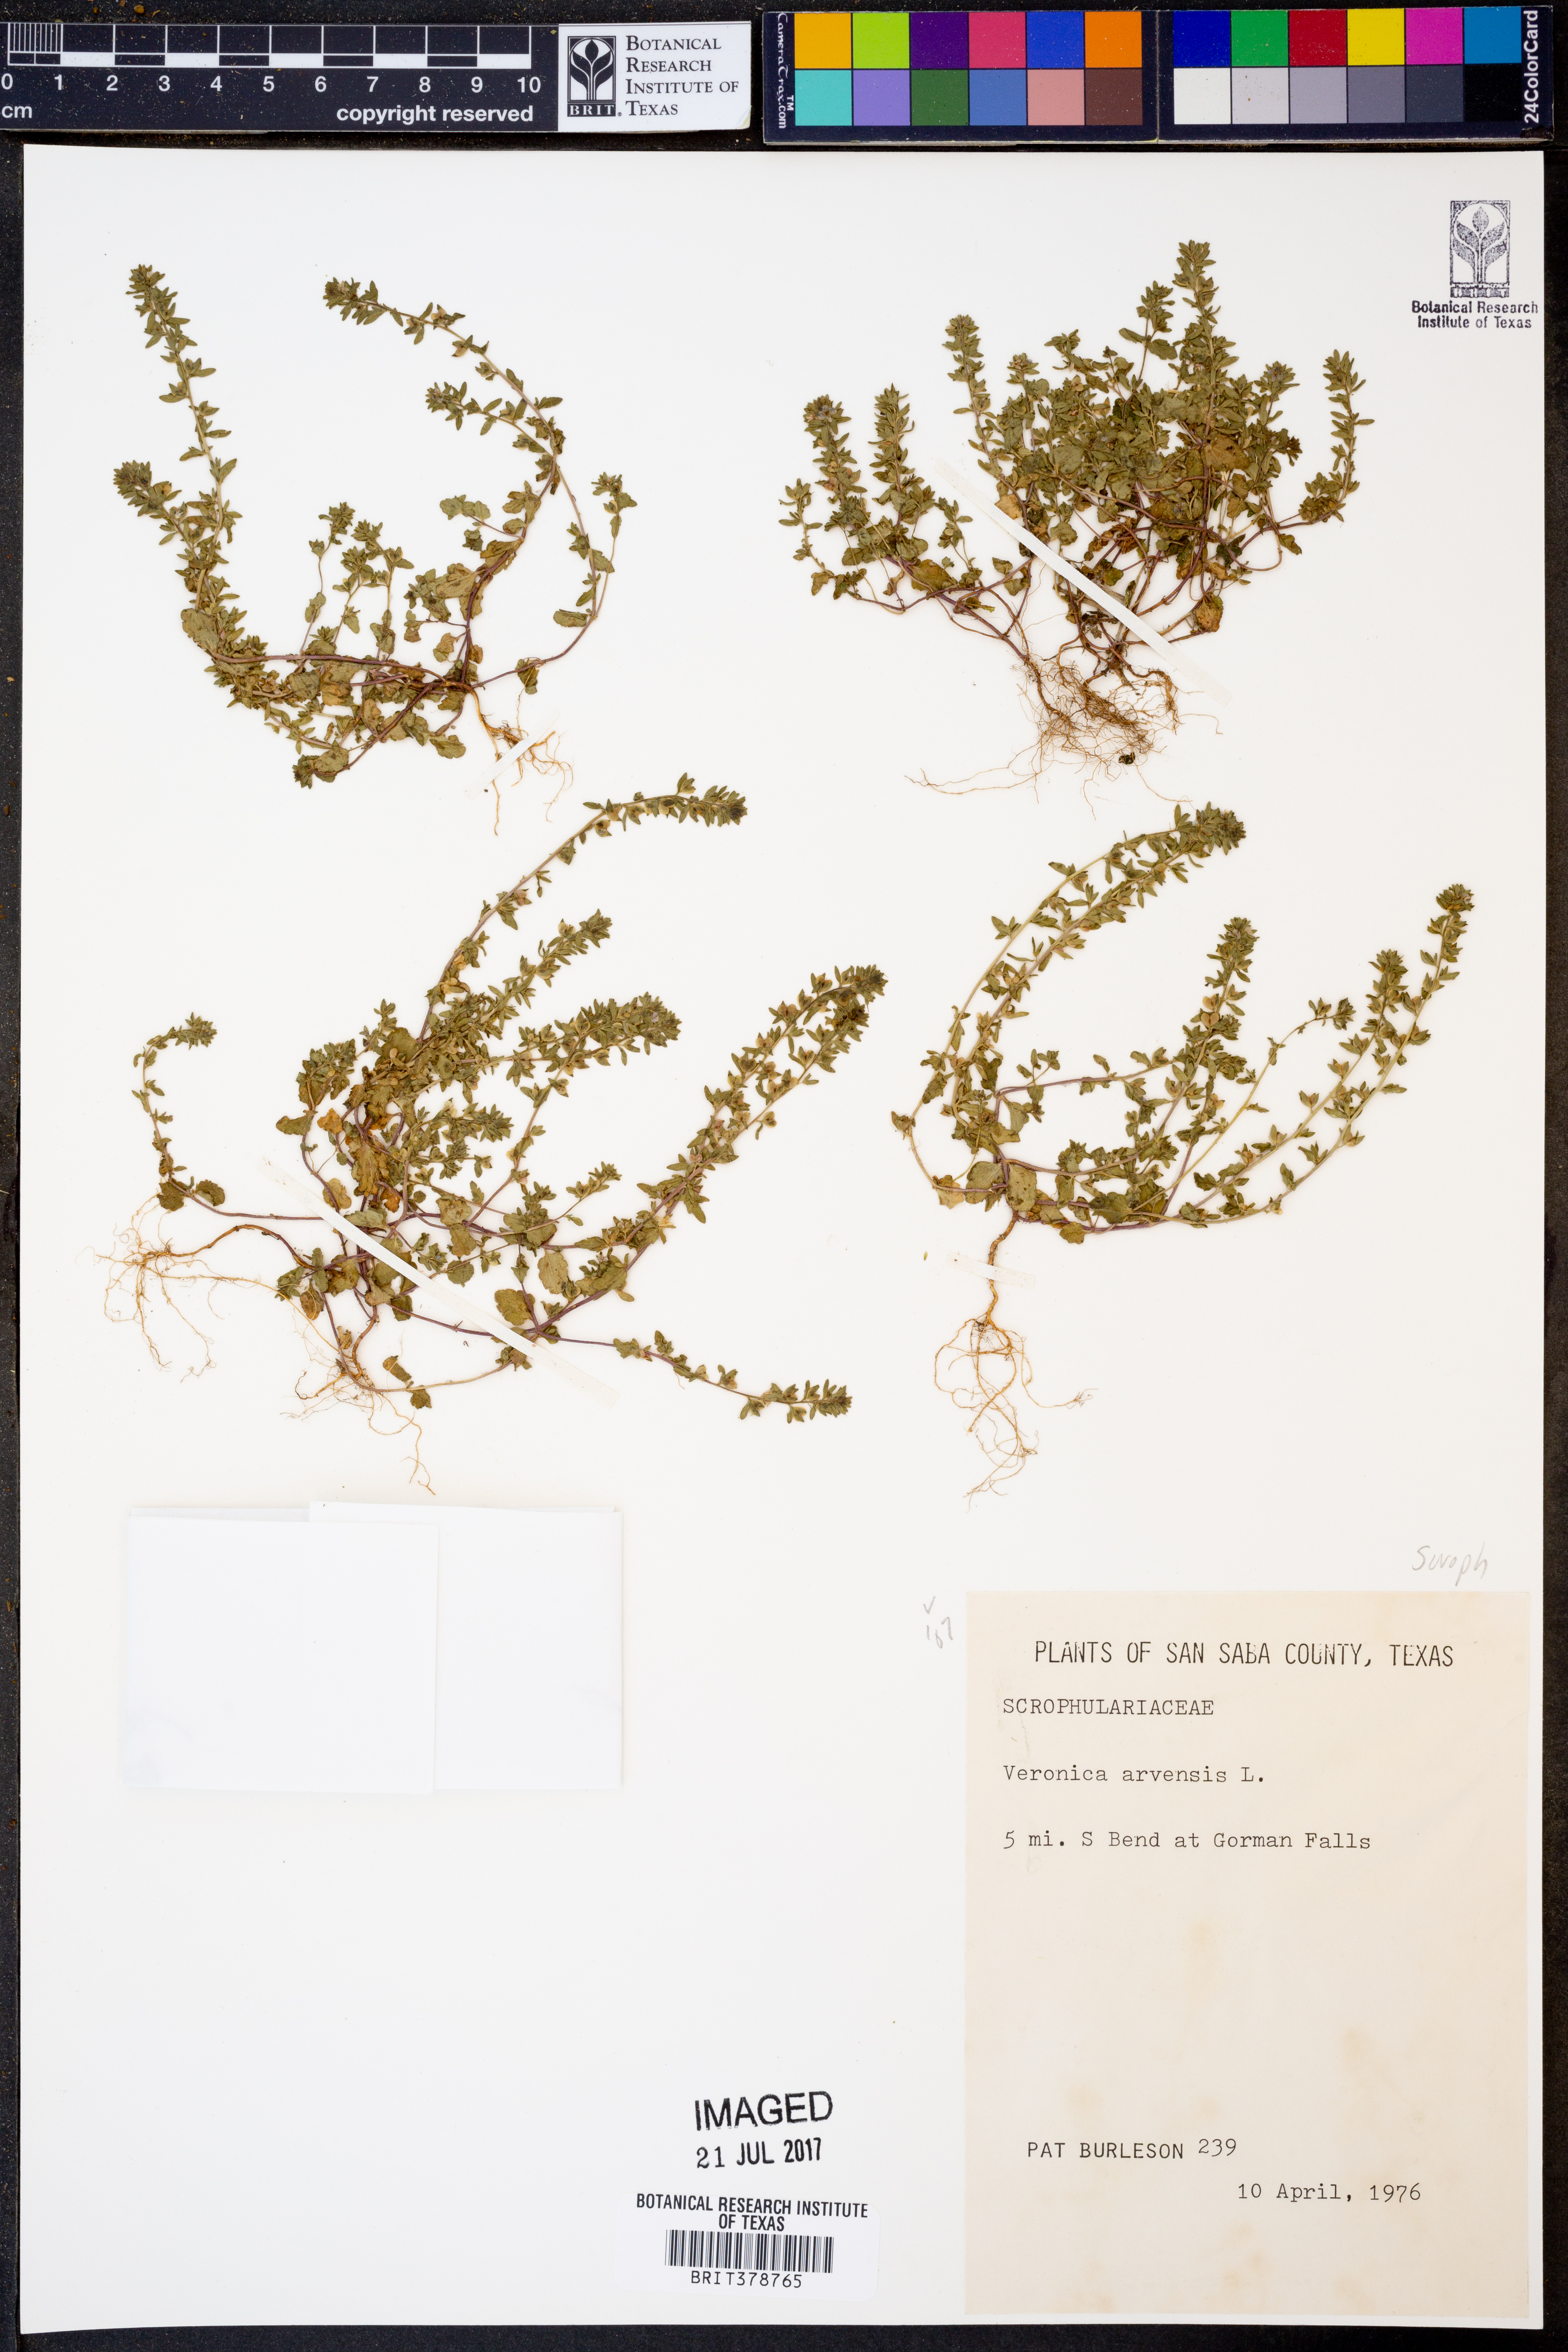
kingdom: Plantae
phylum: Tracheophyta
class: Magnoliopsida
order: Lamiales
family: Plantaginaceae
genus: Veronica
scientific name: Veronica arvensis
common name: Corn speedwell
